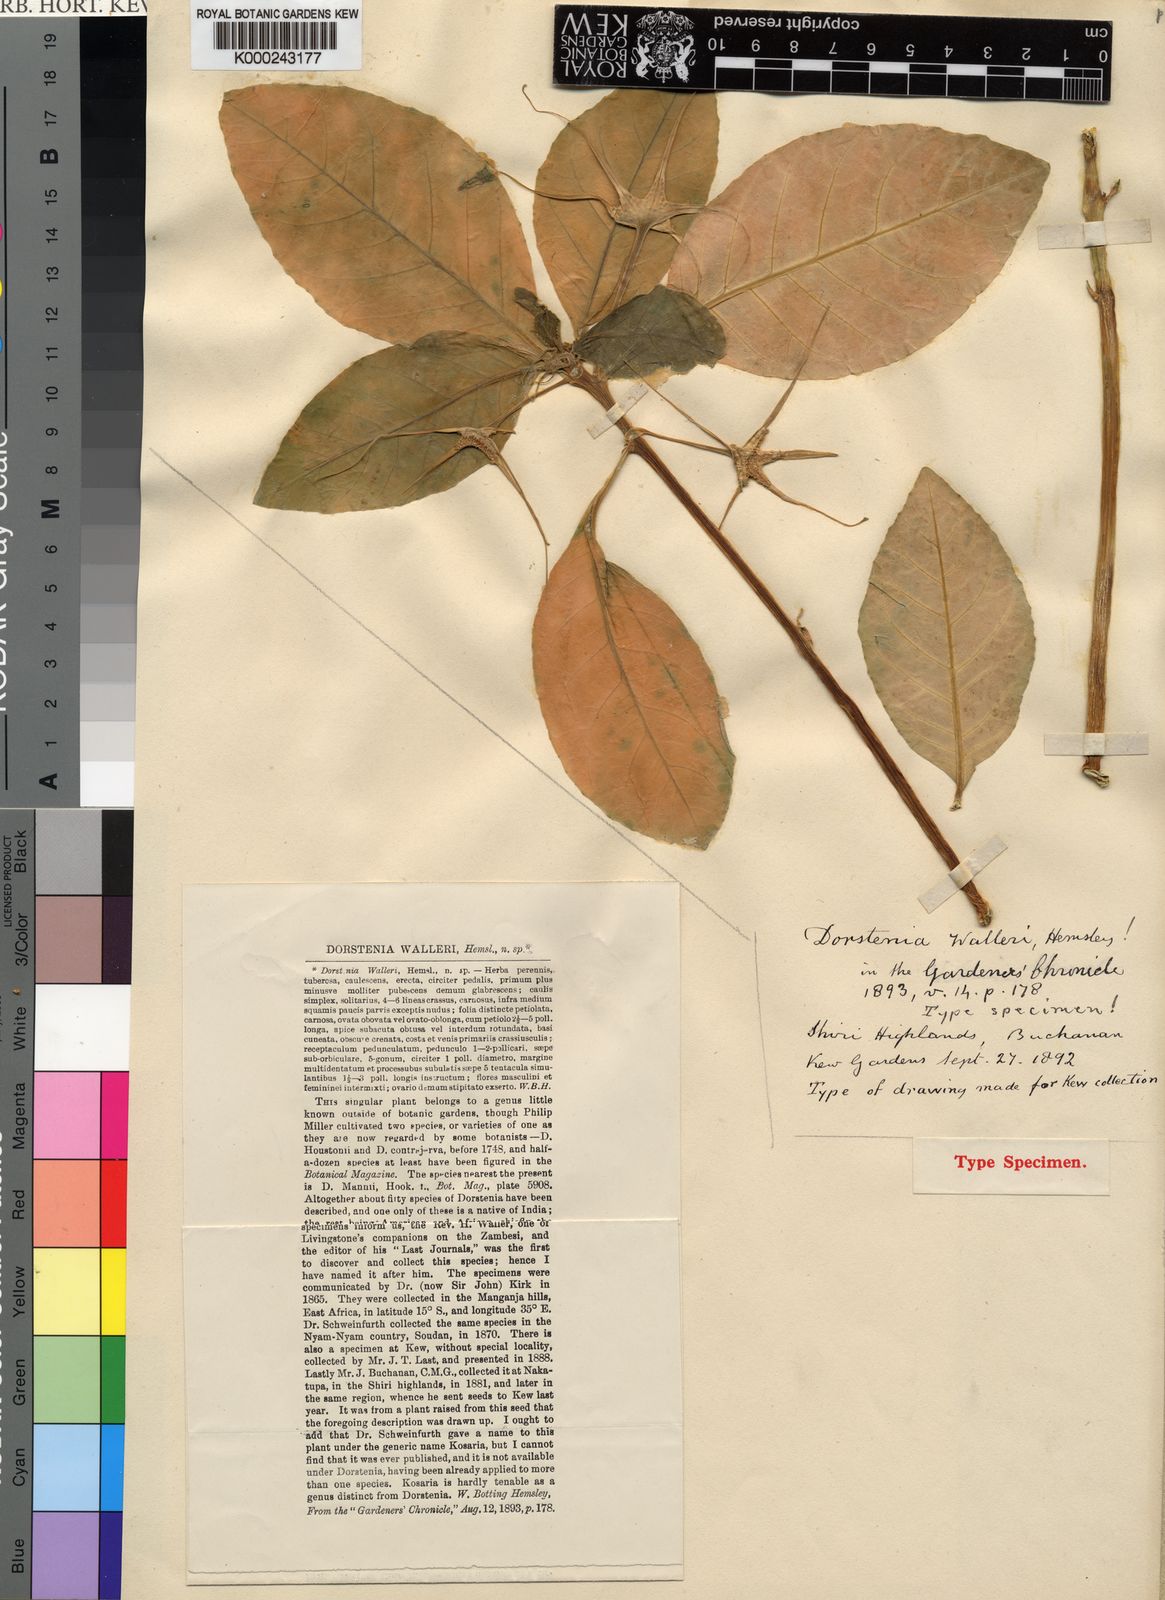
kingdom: Plantae
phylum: Tracheophyta
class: Magnoliopsida
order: Rosales
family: Moraceae
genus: Dorstenia
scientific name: Dorstenia
